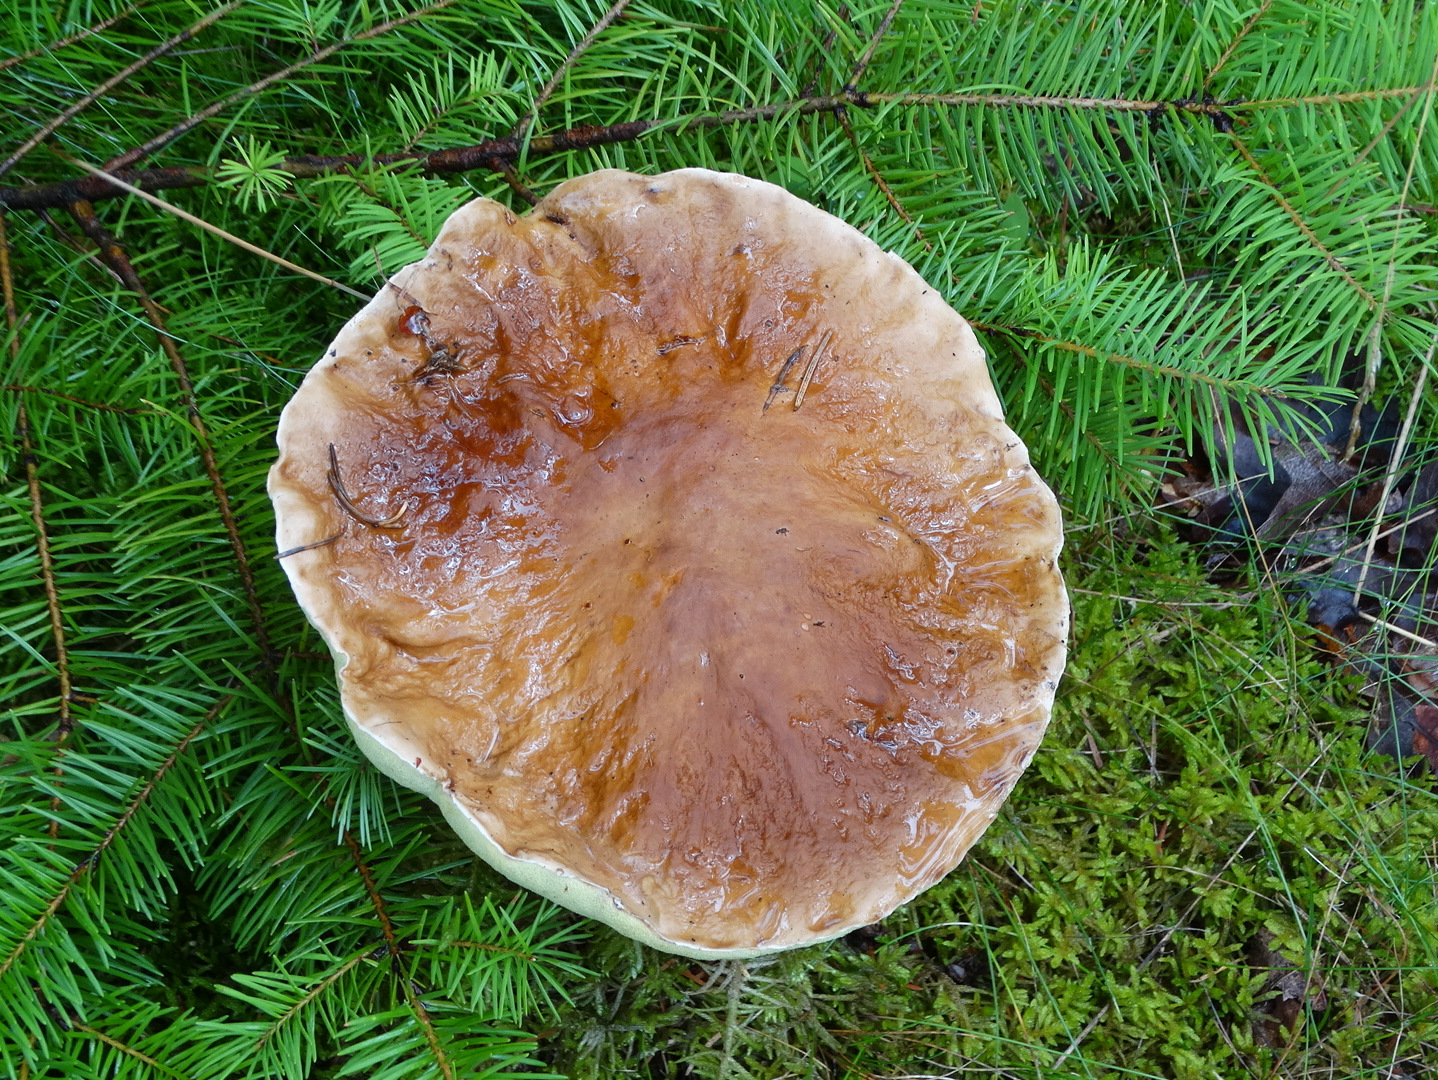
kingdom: Fungi
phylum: Basidiomycota
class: Agaricomycetes
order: Boletales
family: Boletaceae
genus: Boletus
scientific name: Boletus edulis
